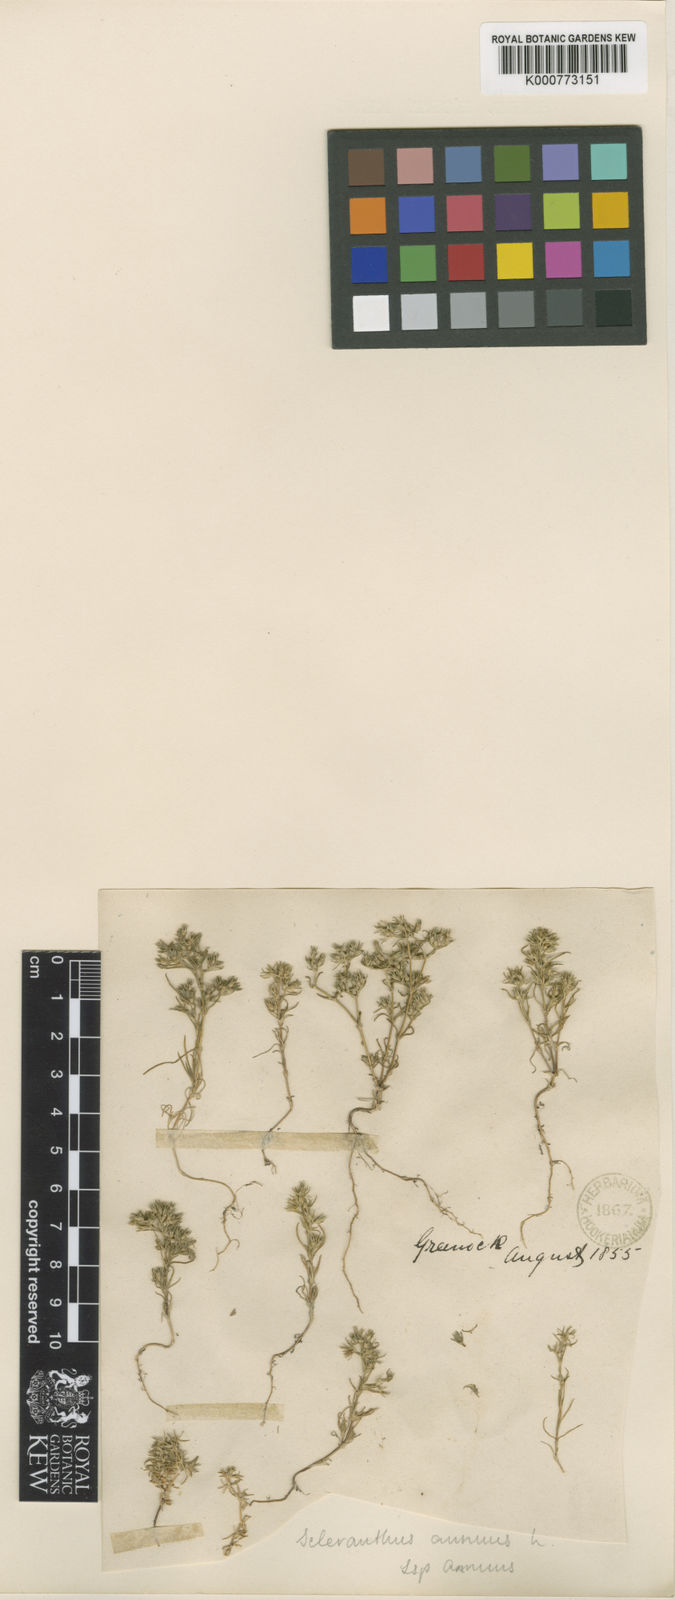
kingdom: Plantae
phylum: Tracheophyta
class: Magnoliopsida
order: Caryophyllales
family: Caryophyllaceae
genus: Scleranthus
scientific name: Scleranthus annuus
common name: Annual knawel
